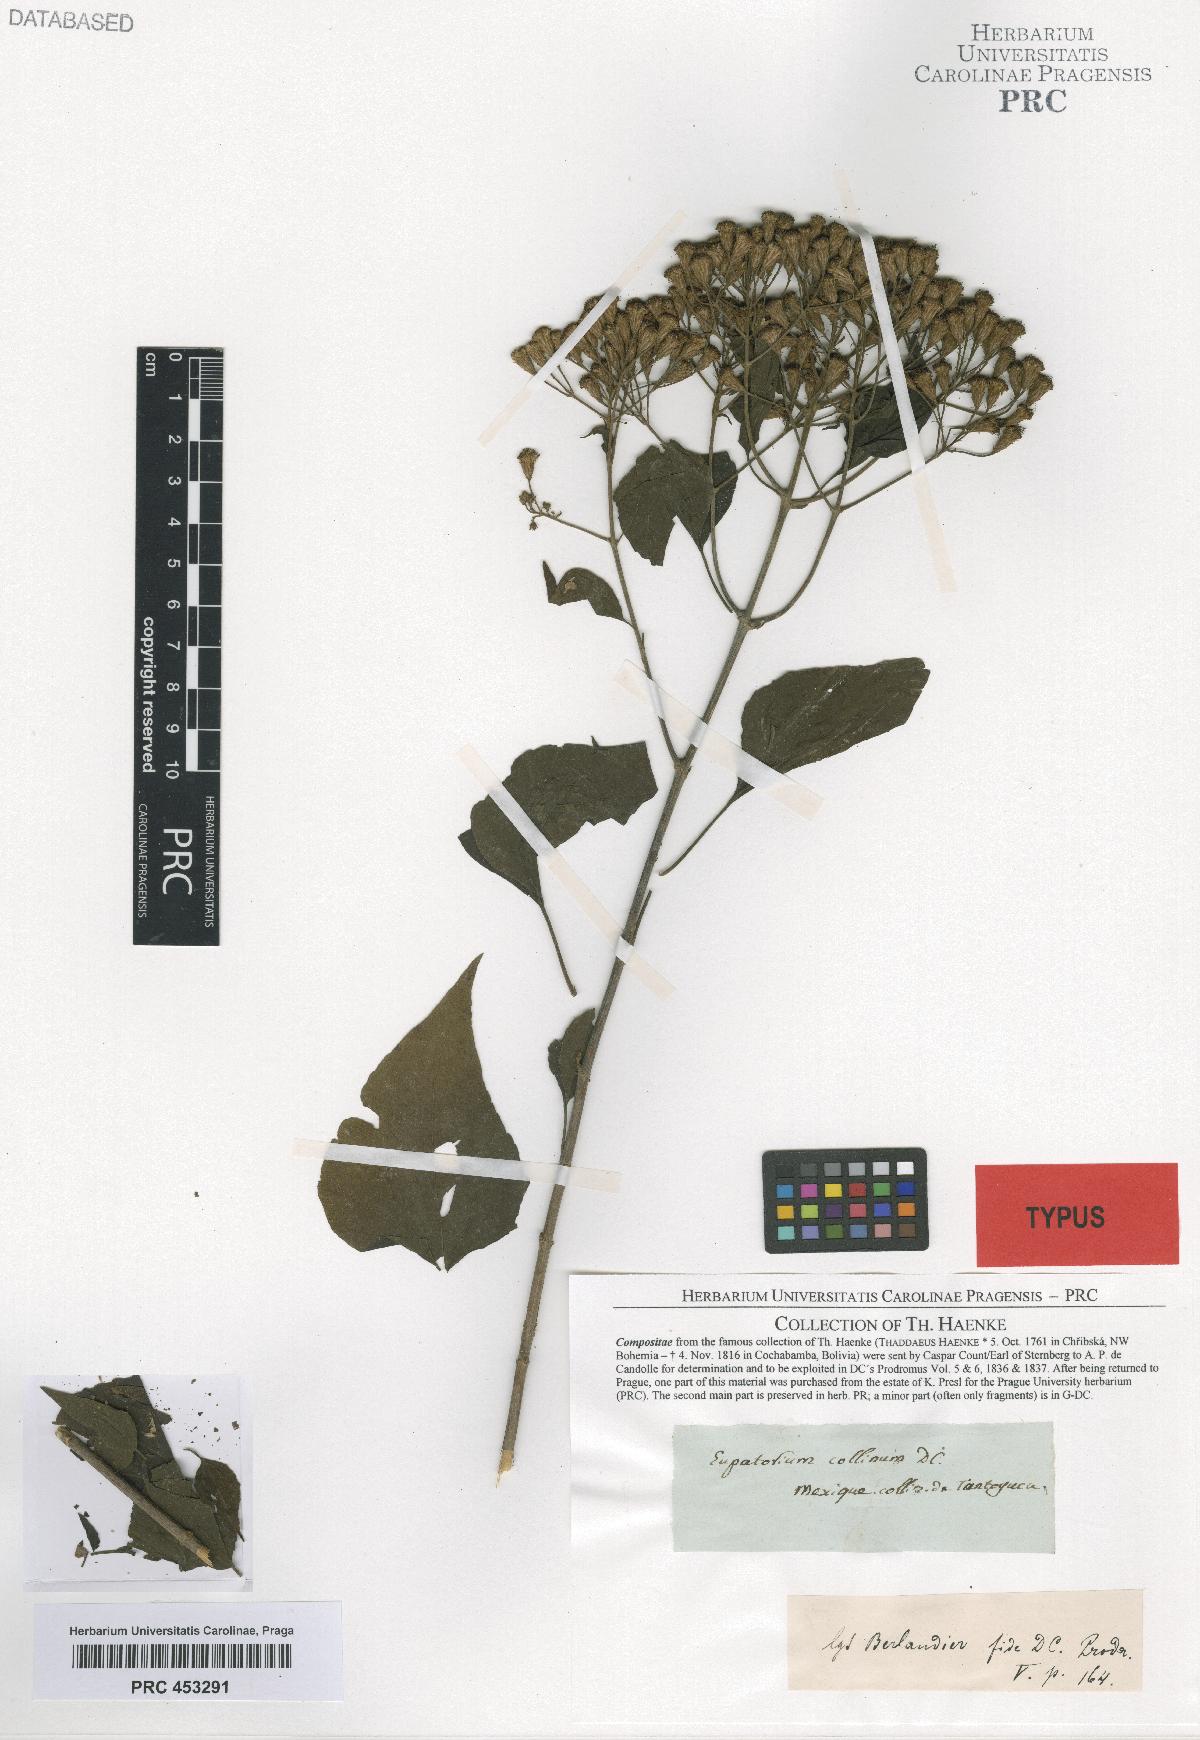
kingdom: Plantae
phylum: Tracheophyta
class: Magnoliopsida
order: Asterales
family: Asteraceae
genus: Chromolaena
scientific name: Chromolaena collina
